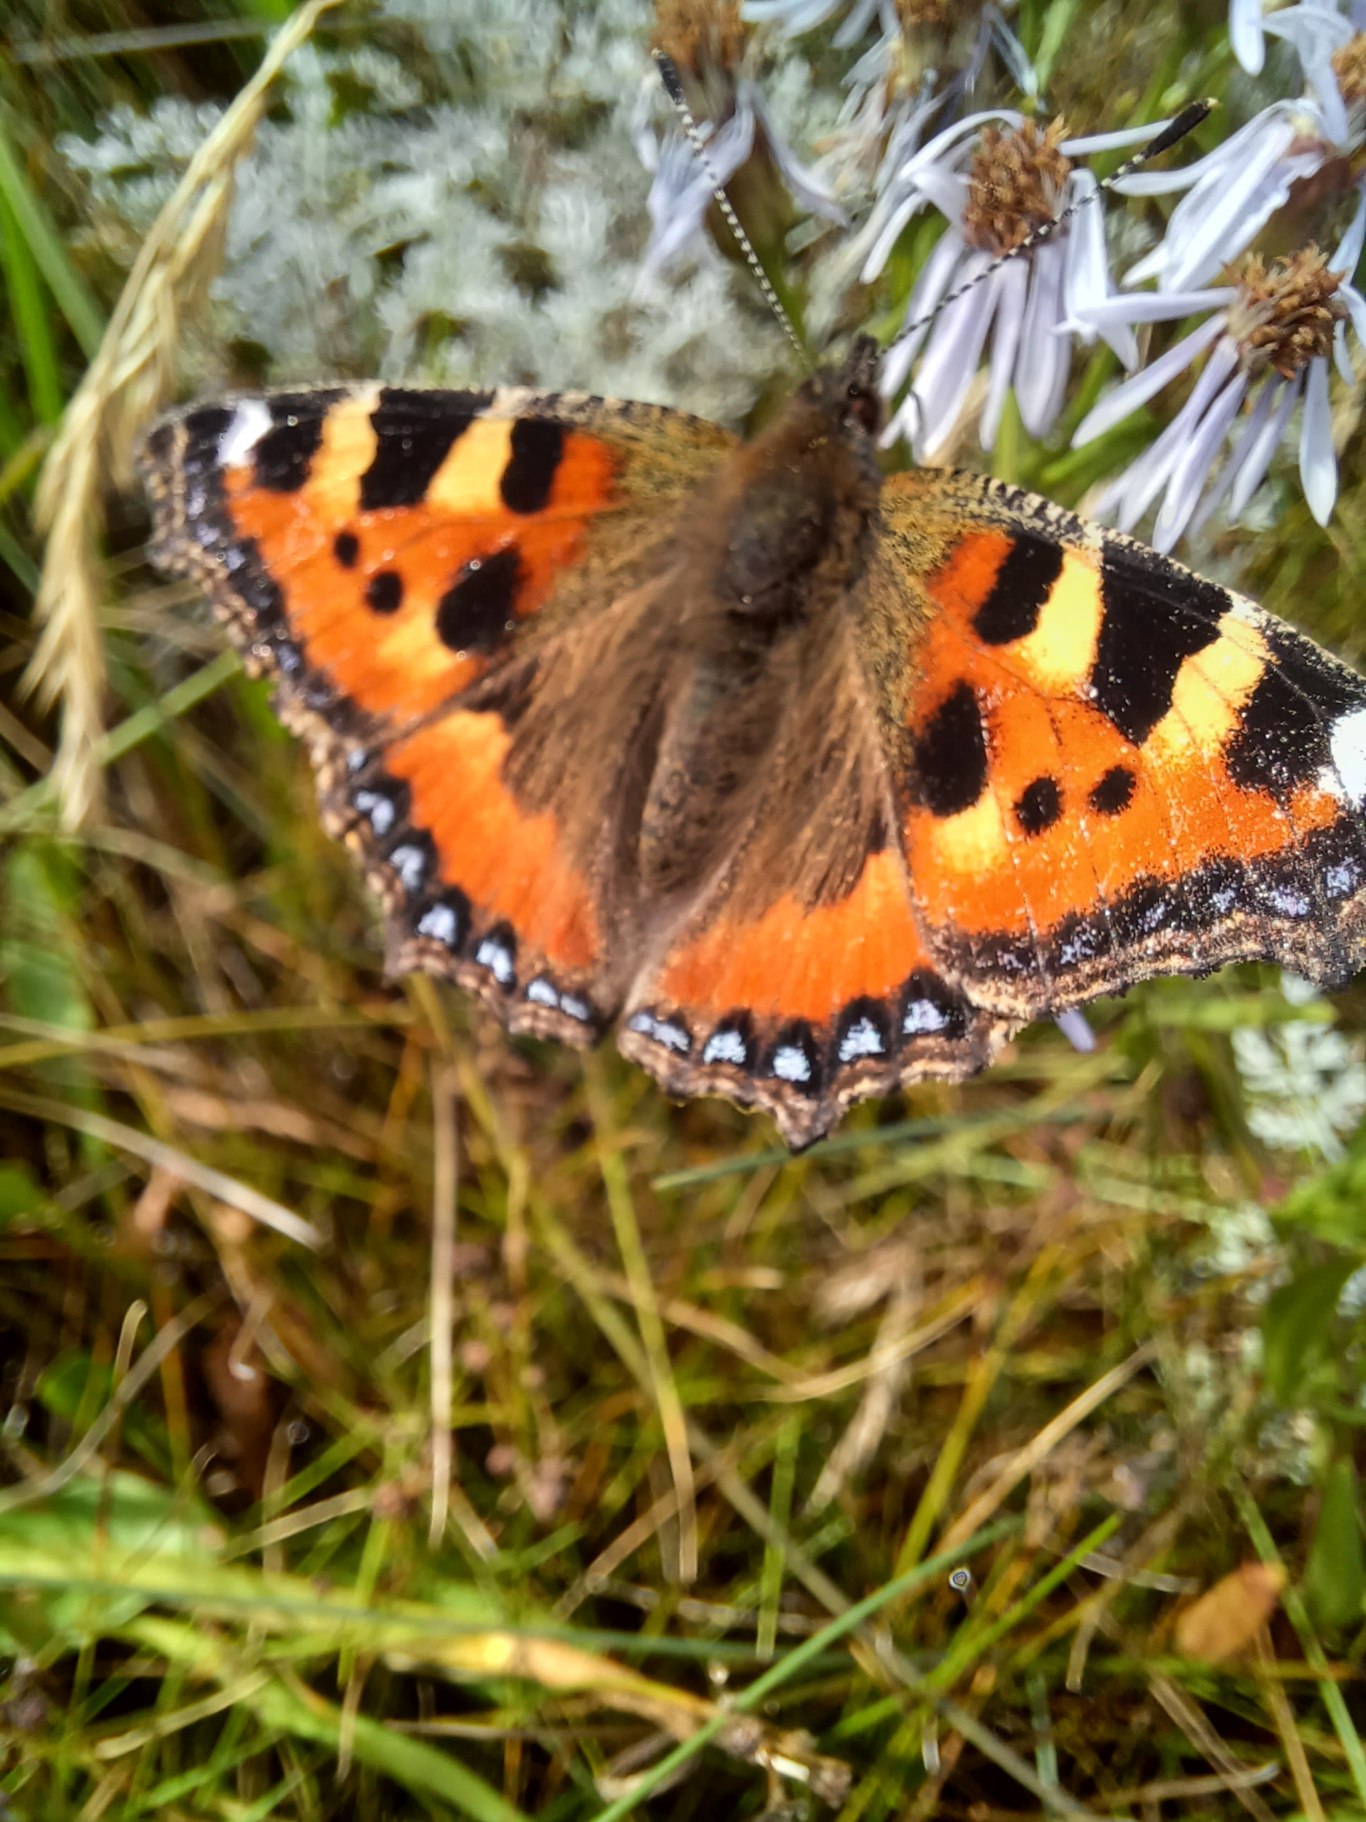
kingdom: Animalia
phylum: Arthropoda
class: Insecta
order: Lepidoptera
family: Nymphalidae
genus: Aglais
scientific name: Aglais urticae
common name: Nældens takvinge
